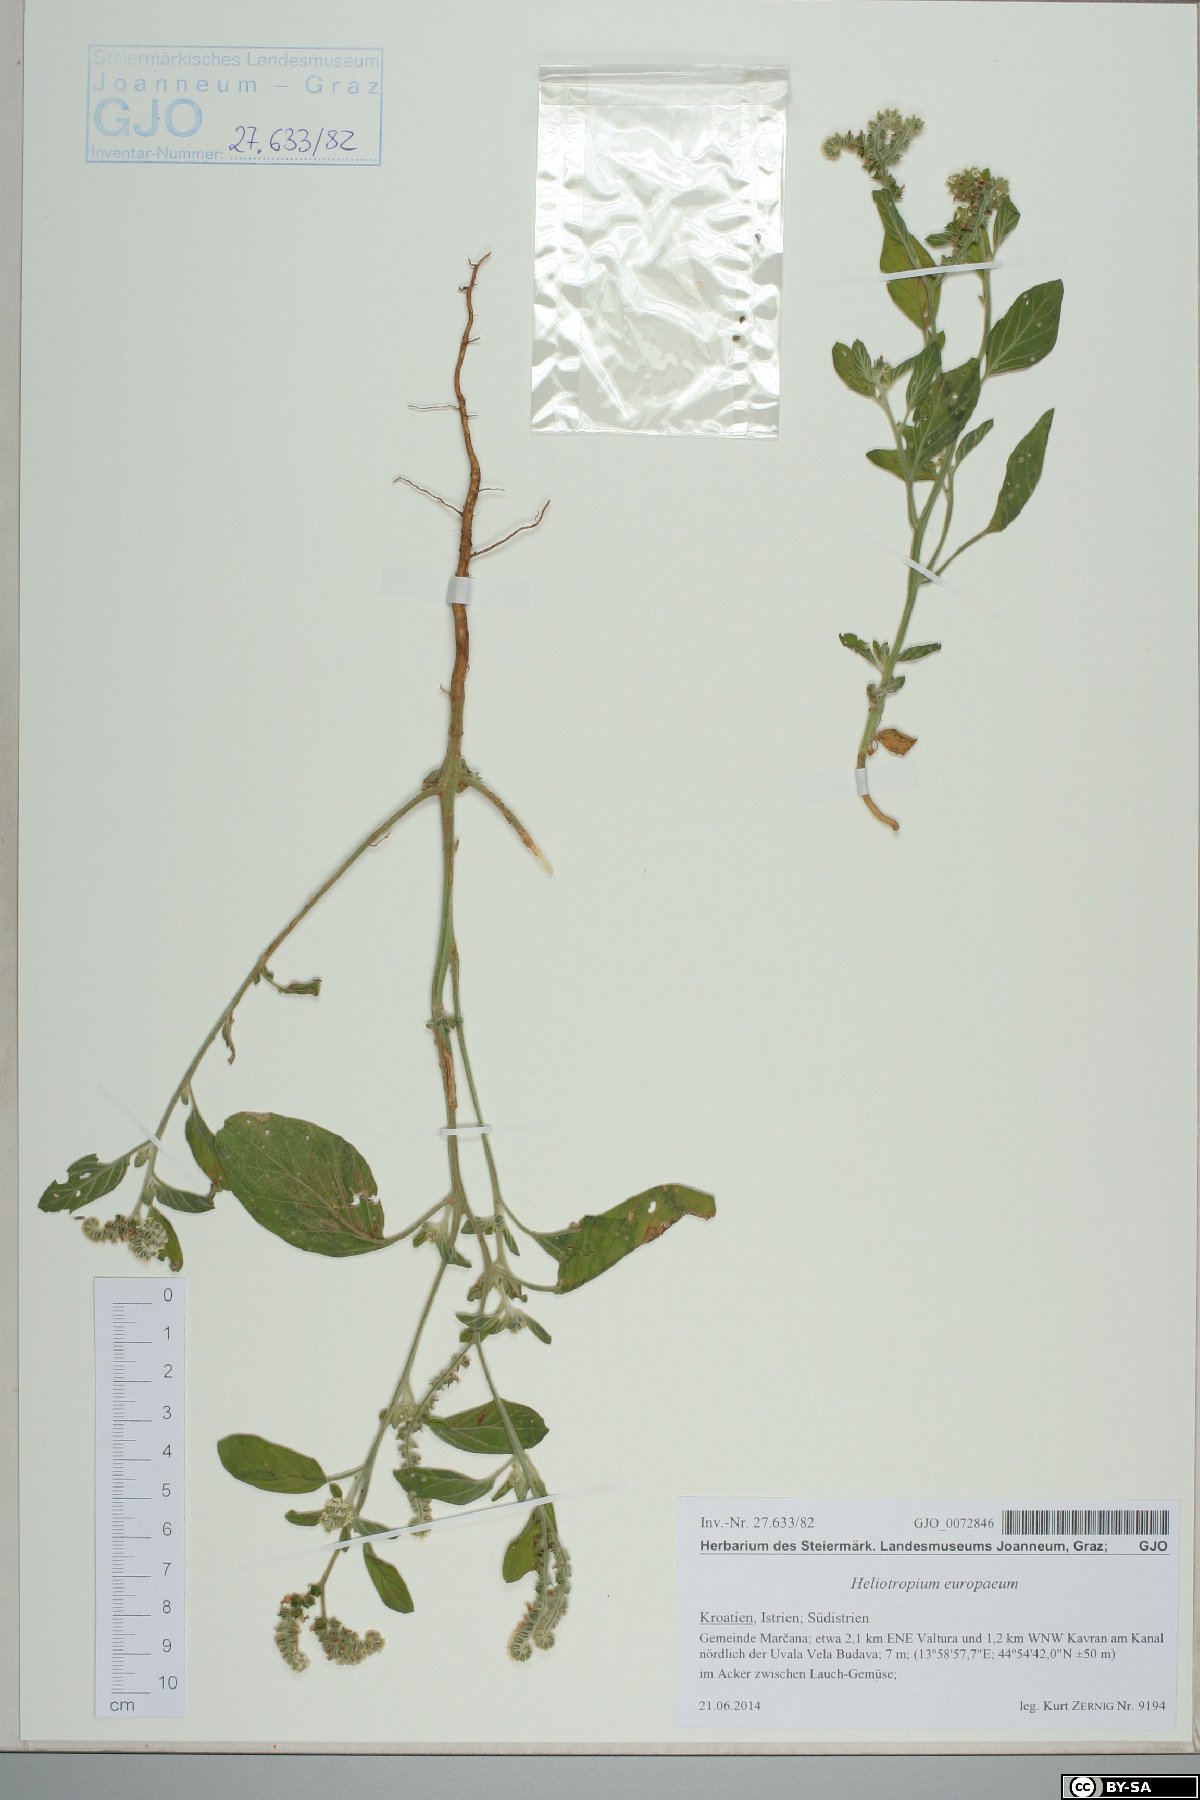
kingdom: Plantae
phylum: Tracheophyta
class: Magnoliopsida
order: Boraginales
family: Heliotropiaceae
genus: Heliotropium
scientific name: Heliotropium europaeum
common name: European heliotrope
